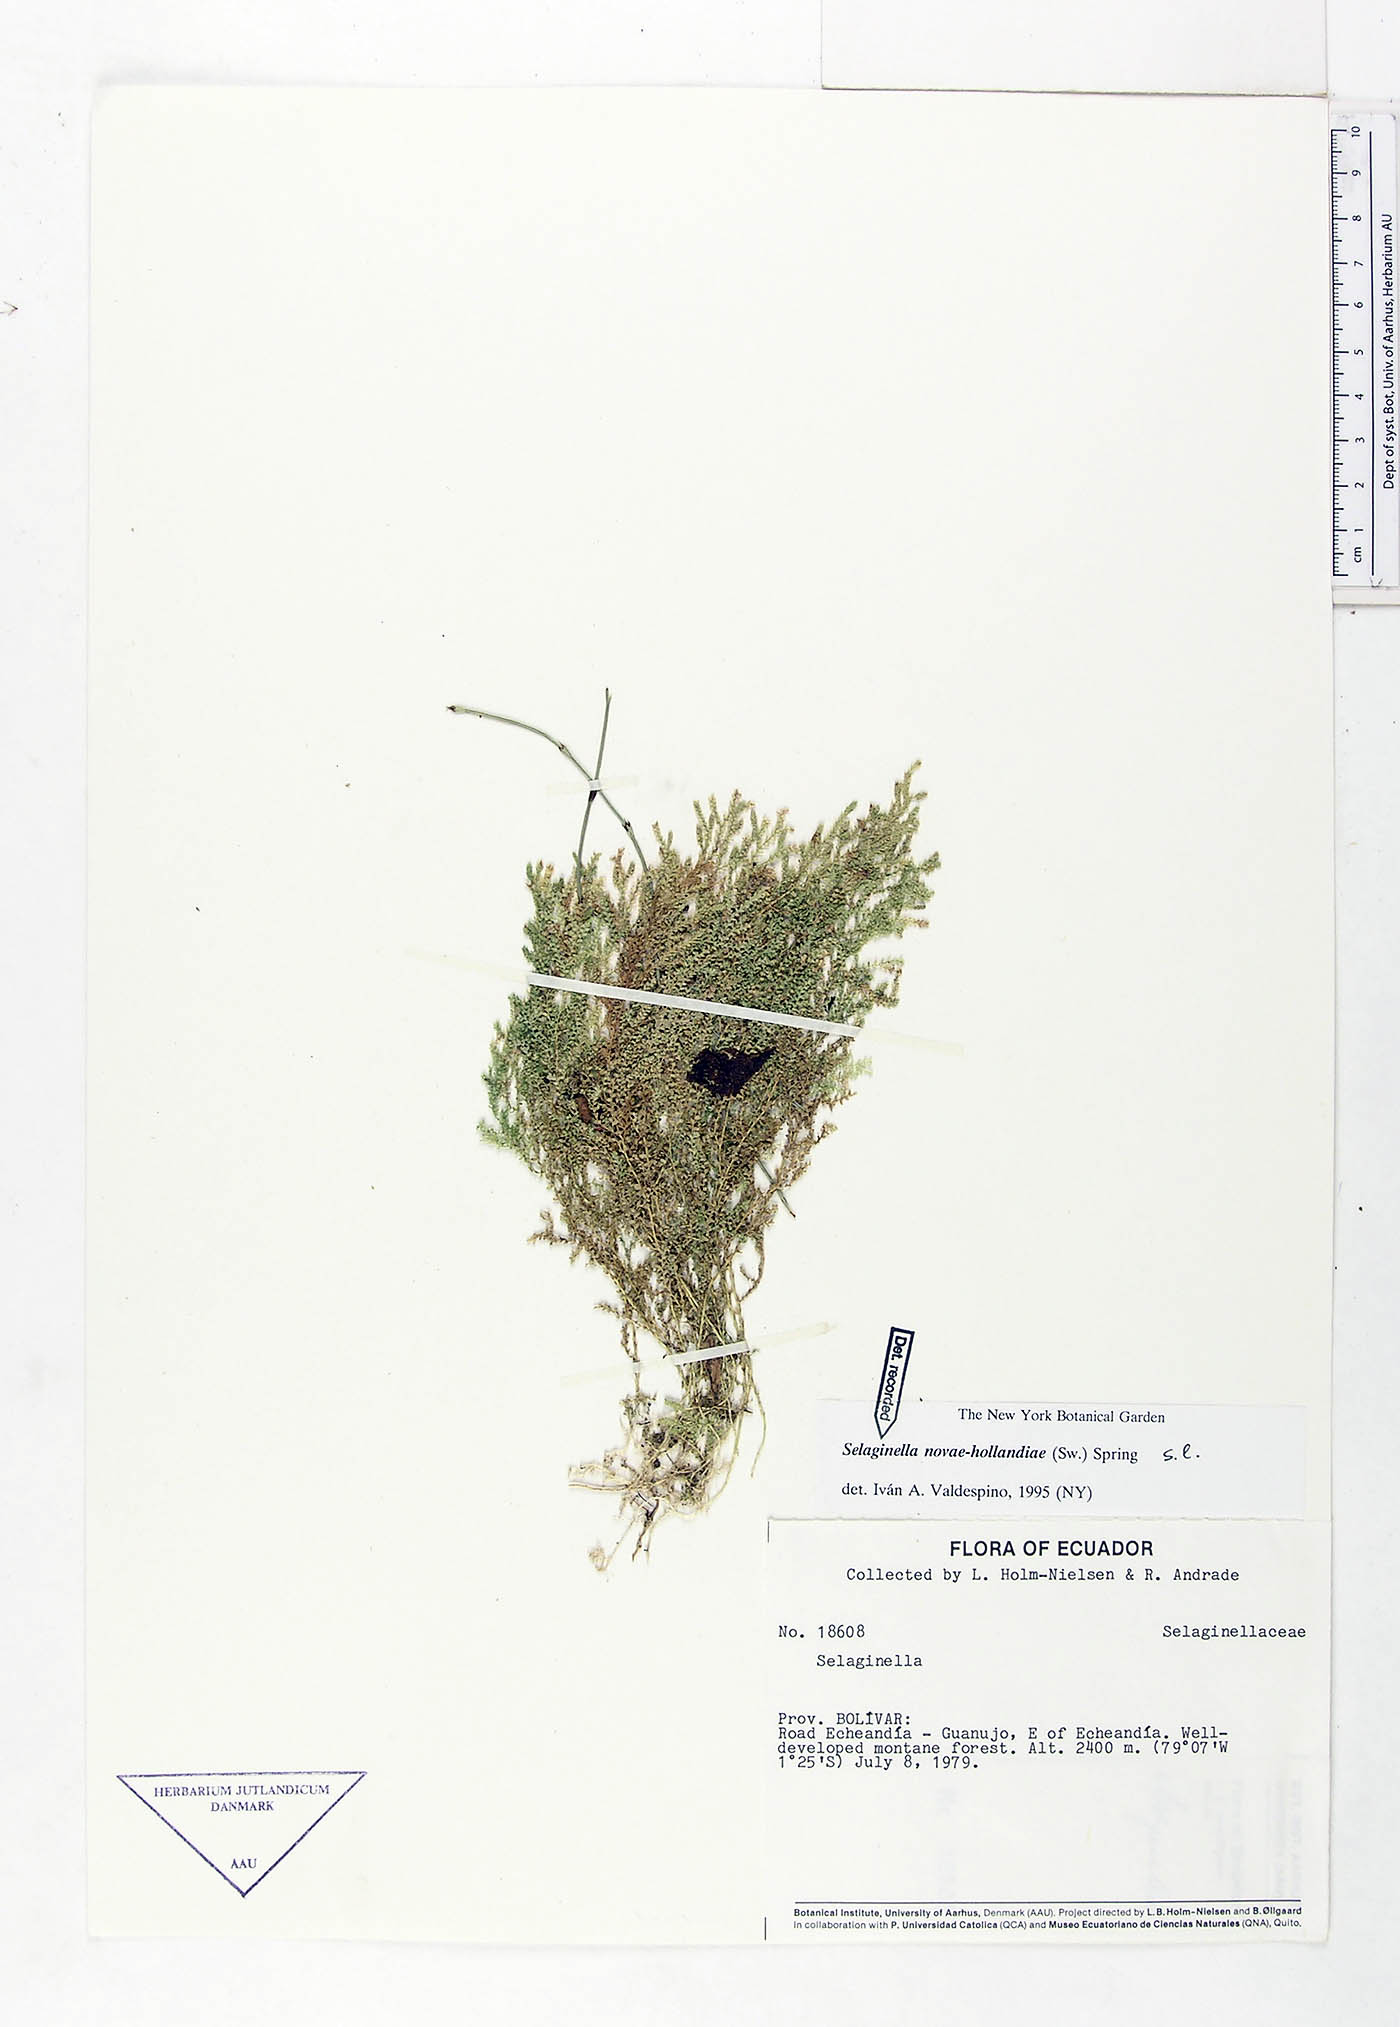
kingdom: Plantae
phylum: Tracheophyta
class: Lycopodiopsida
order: Selaginellales
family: Selaginellaceae
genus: Selaginella
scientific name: Selaginella novae-hollandiae
